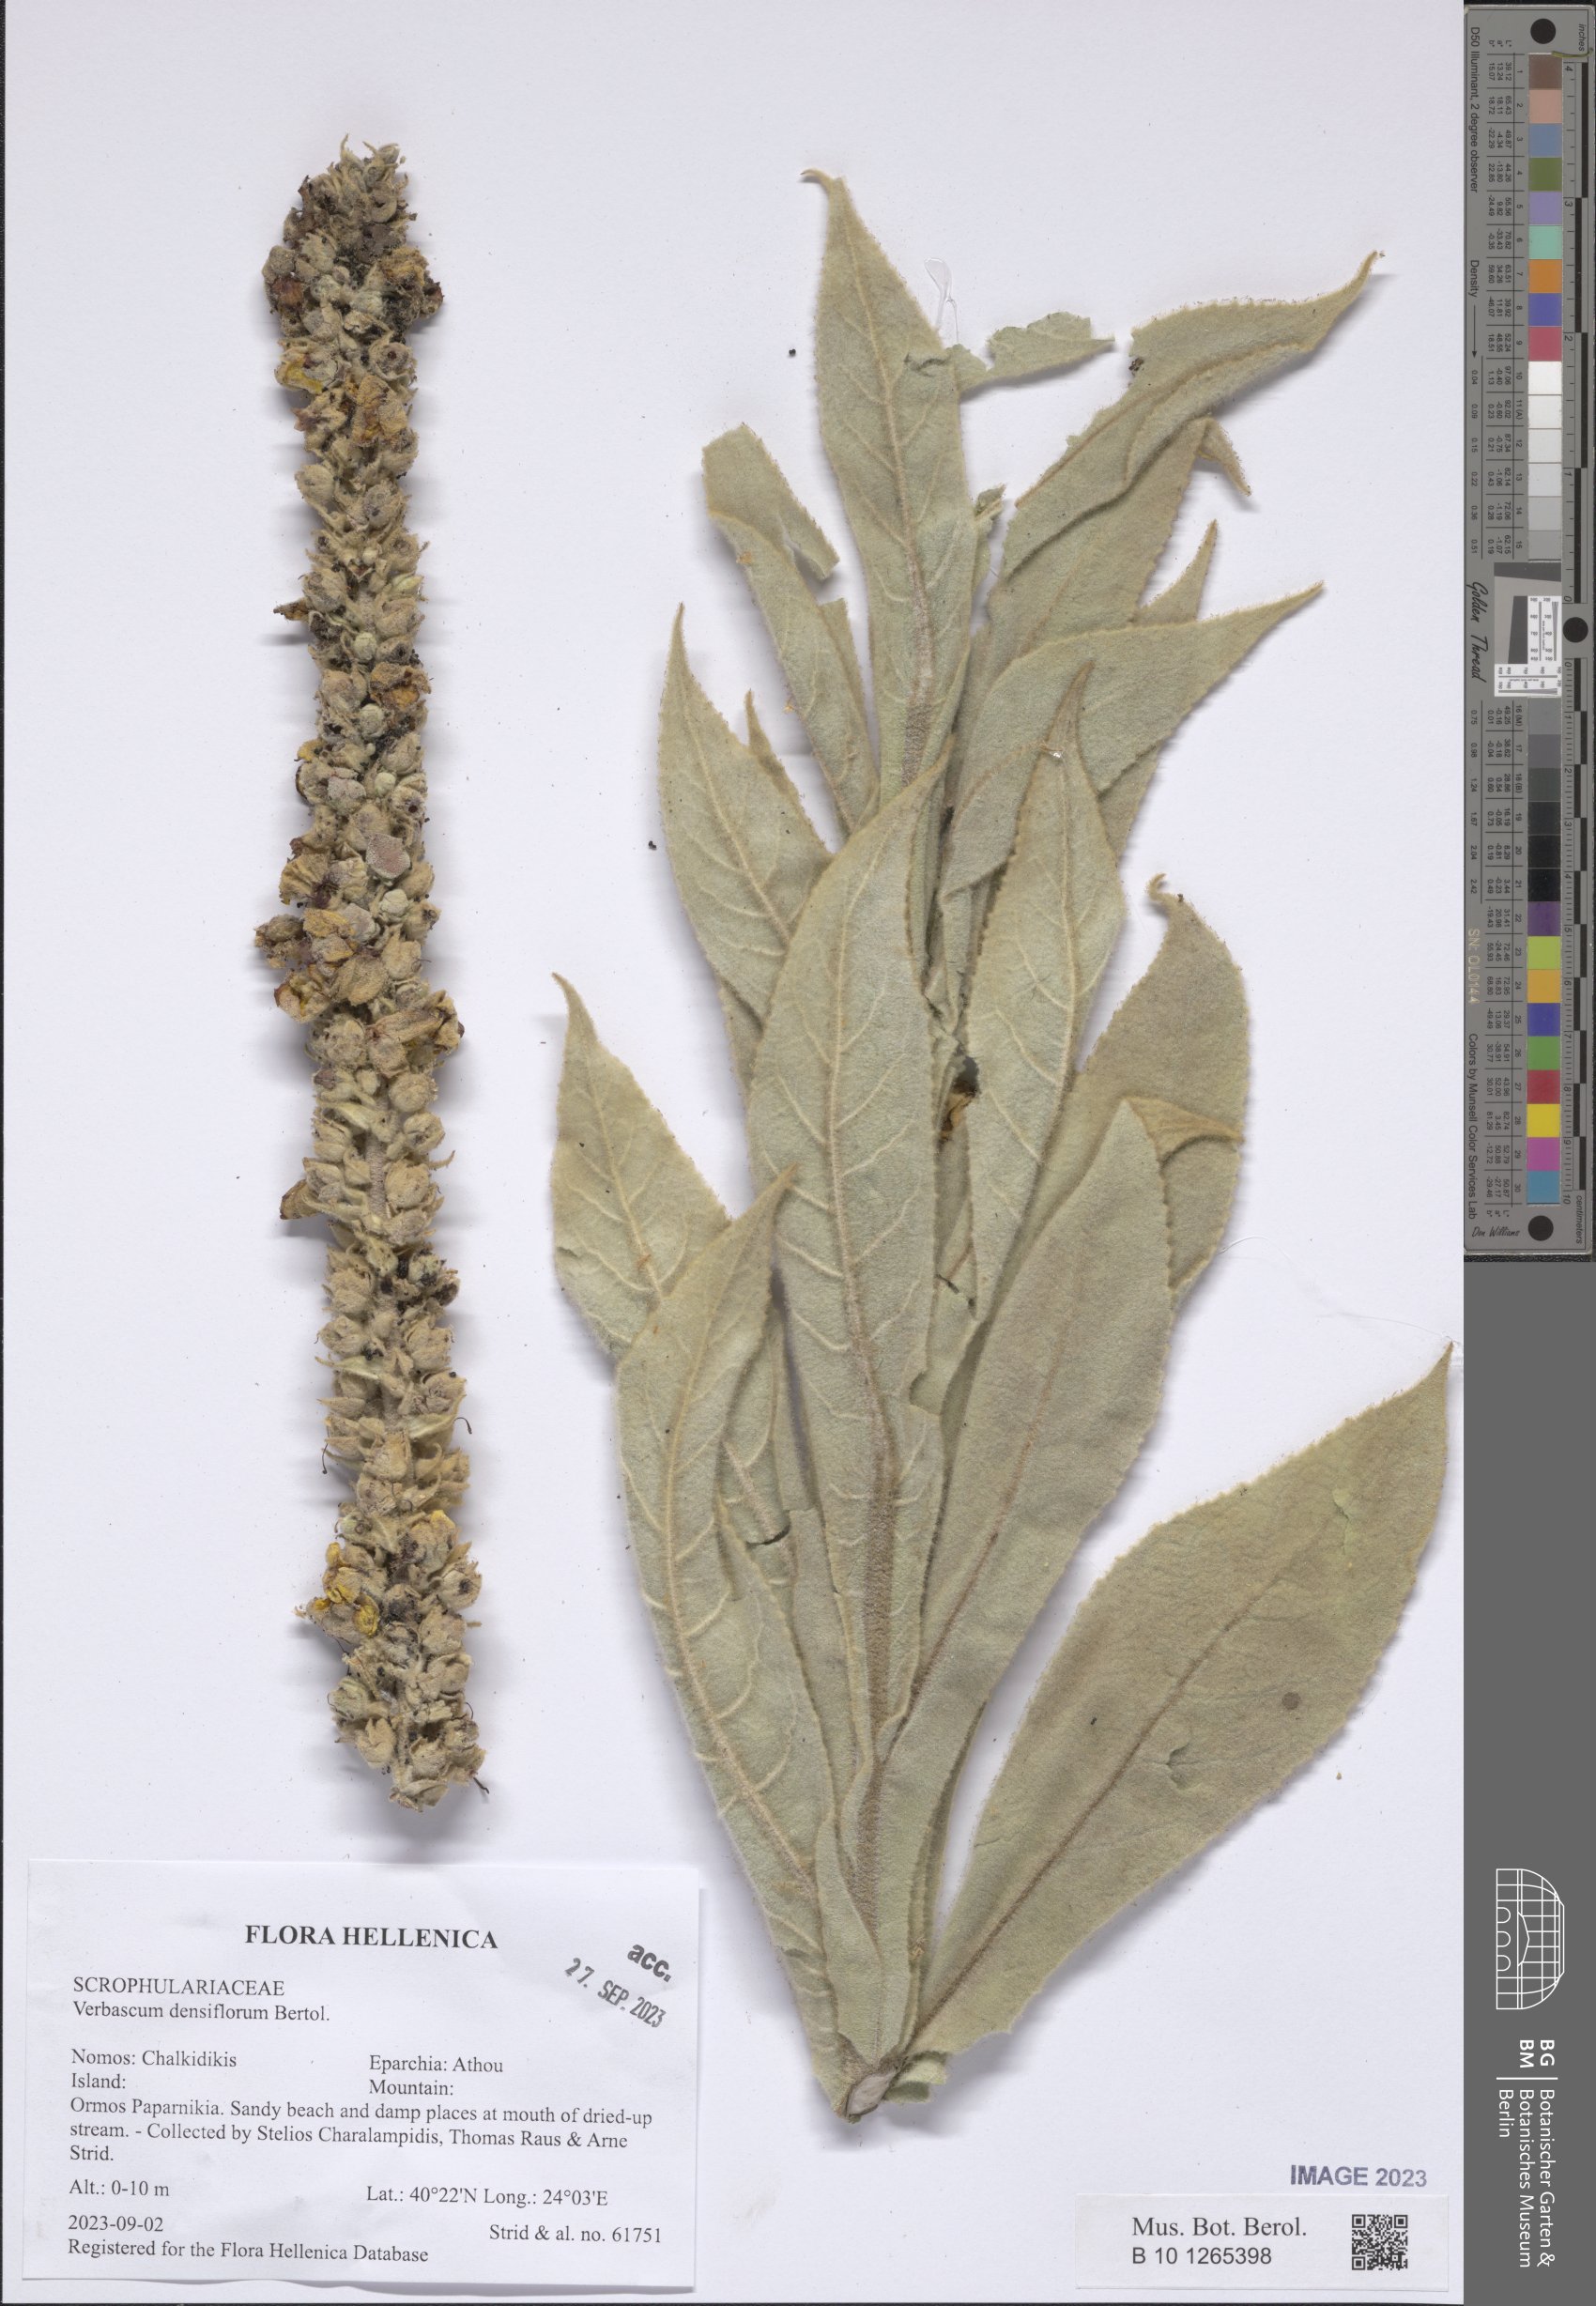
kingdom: Plantae
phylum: Tracheophyta
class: Magnoliopsida
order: Lamiales
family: Scrophulariaceae
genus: Verbascum
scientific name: Verbascum densiflorum
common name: Dense-flowered mullein
